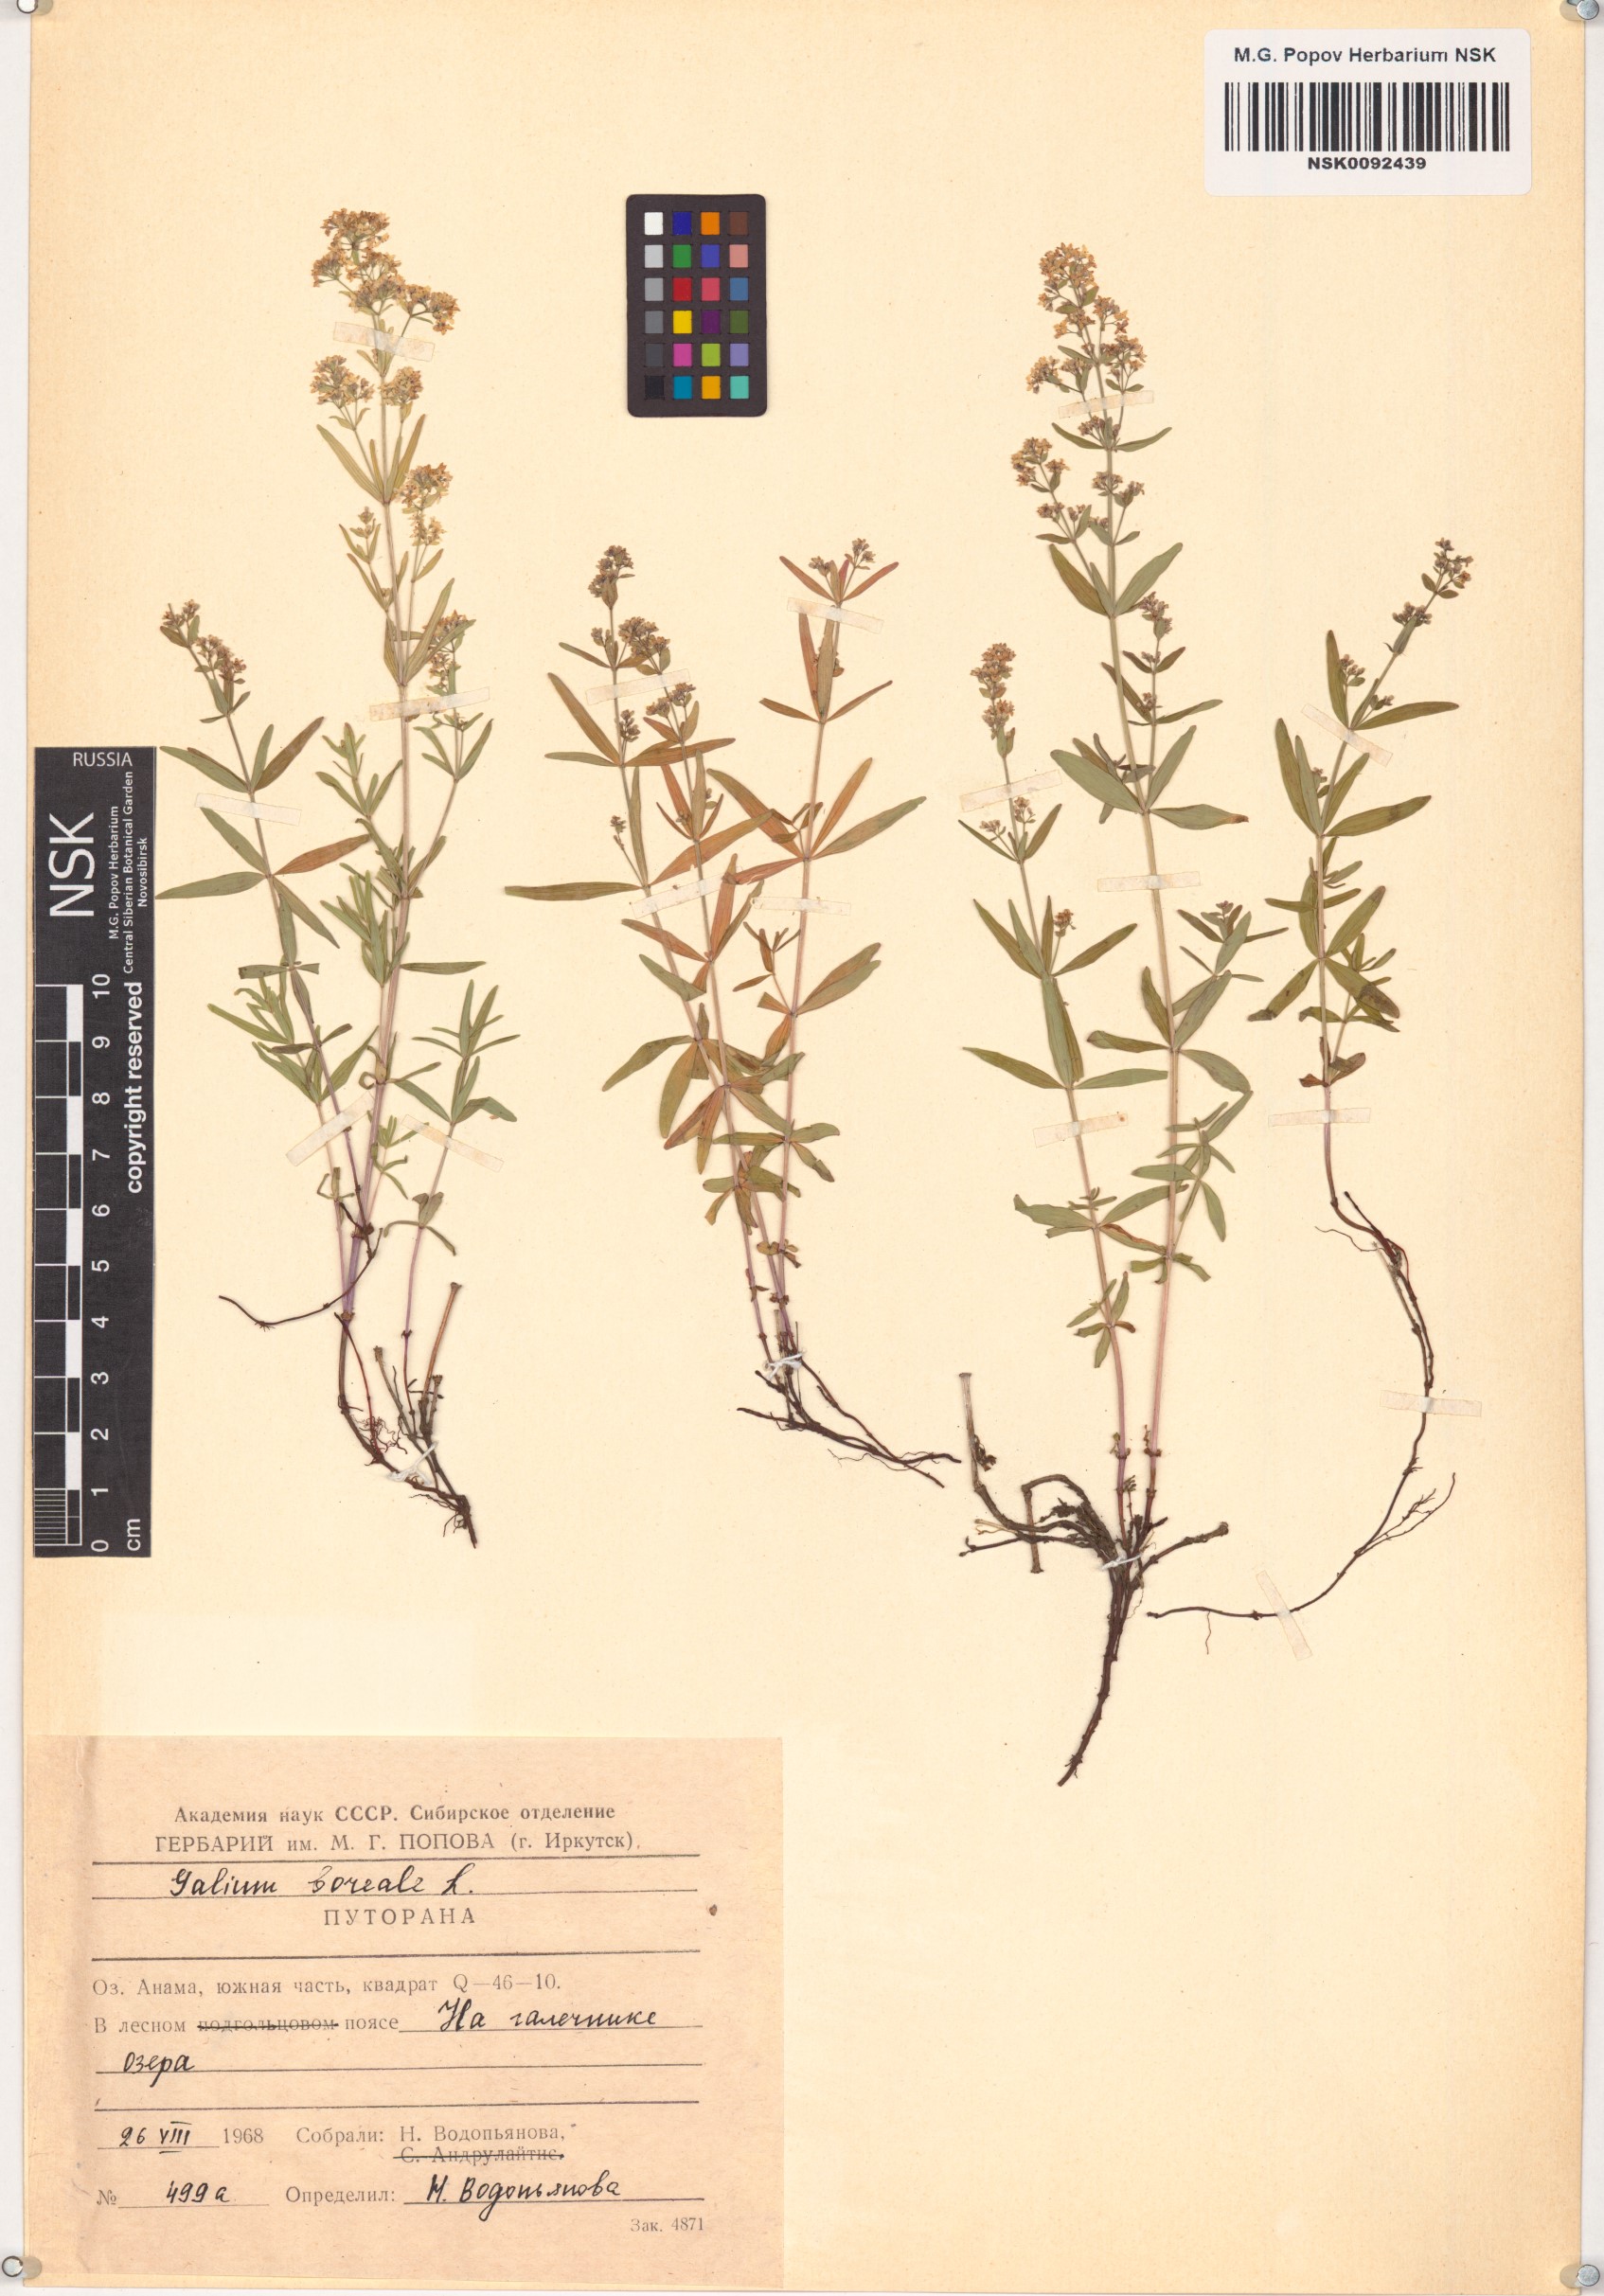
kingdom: Plantae
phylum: Tracheophyta
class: Magnoliopsida
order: Gentianales
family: Rubiaceae
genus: Galium
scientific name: Galium boreale
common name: Northern bedstraw
